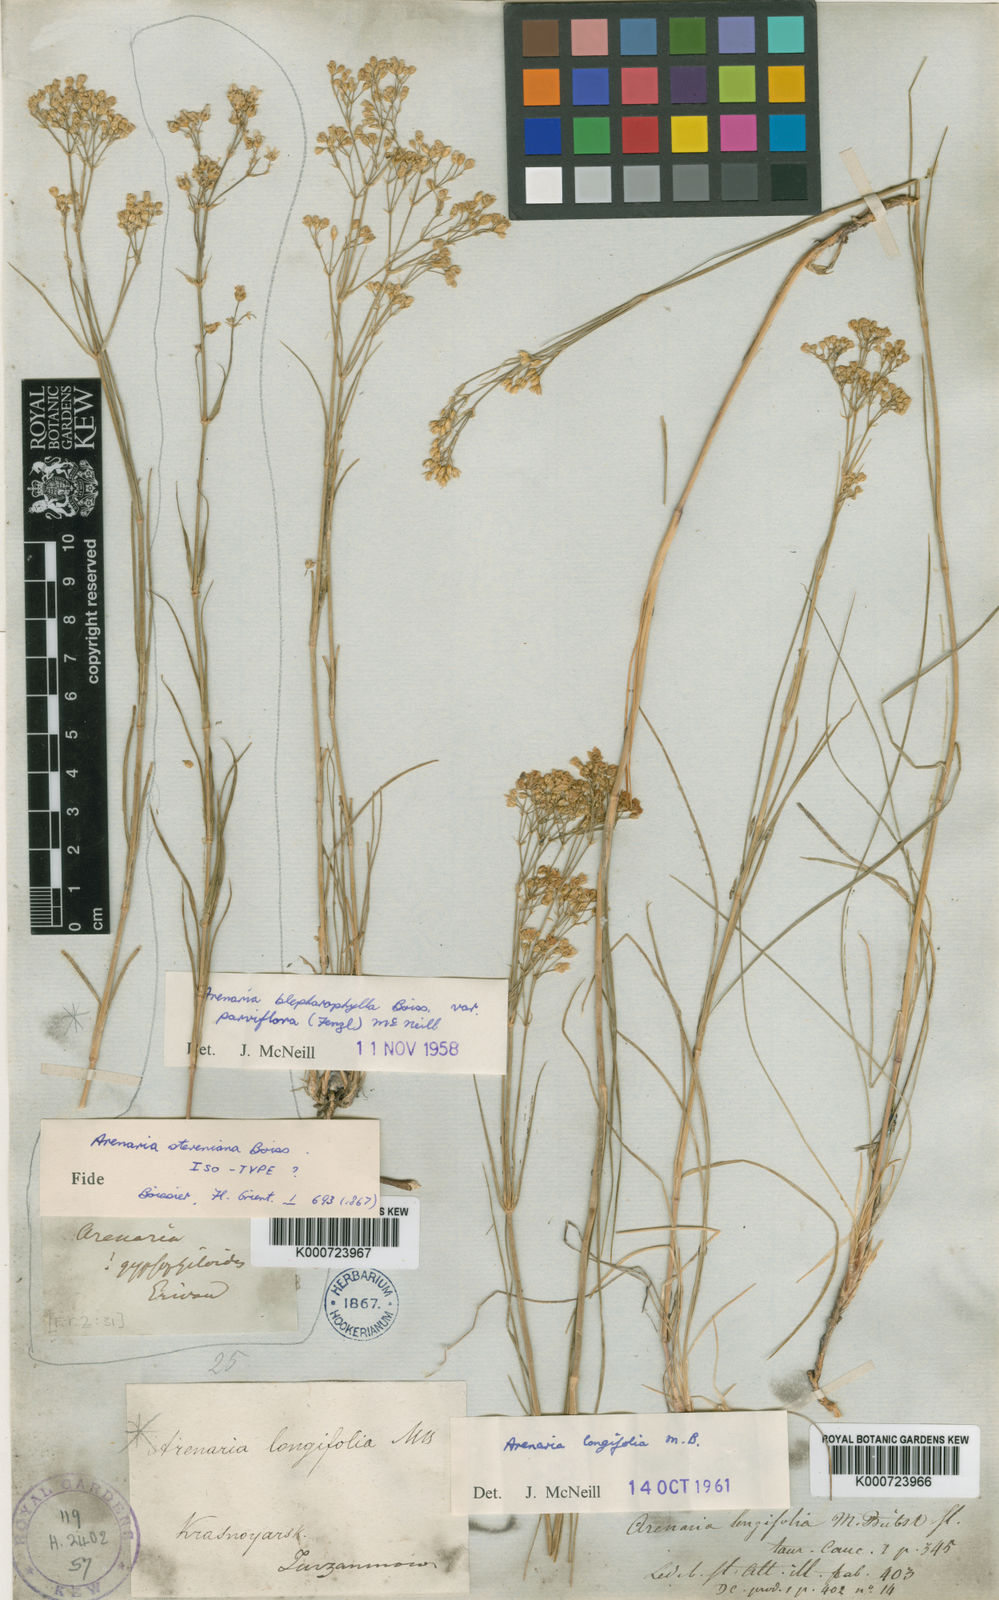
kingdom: Plantae
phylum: Tracheophyta
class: Magnoliopsida
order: Caryophyllales
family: Caryophyllaceae
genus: Eremogone
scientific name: Eremogone blepharophylla
